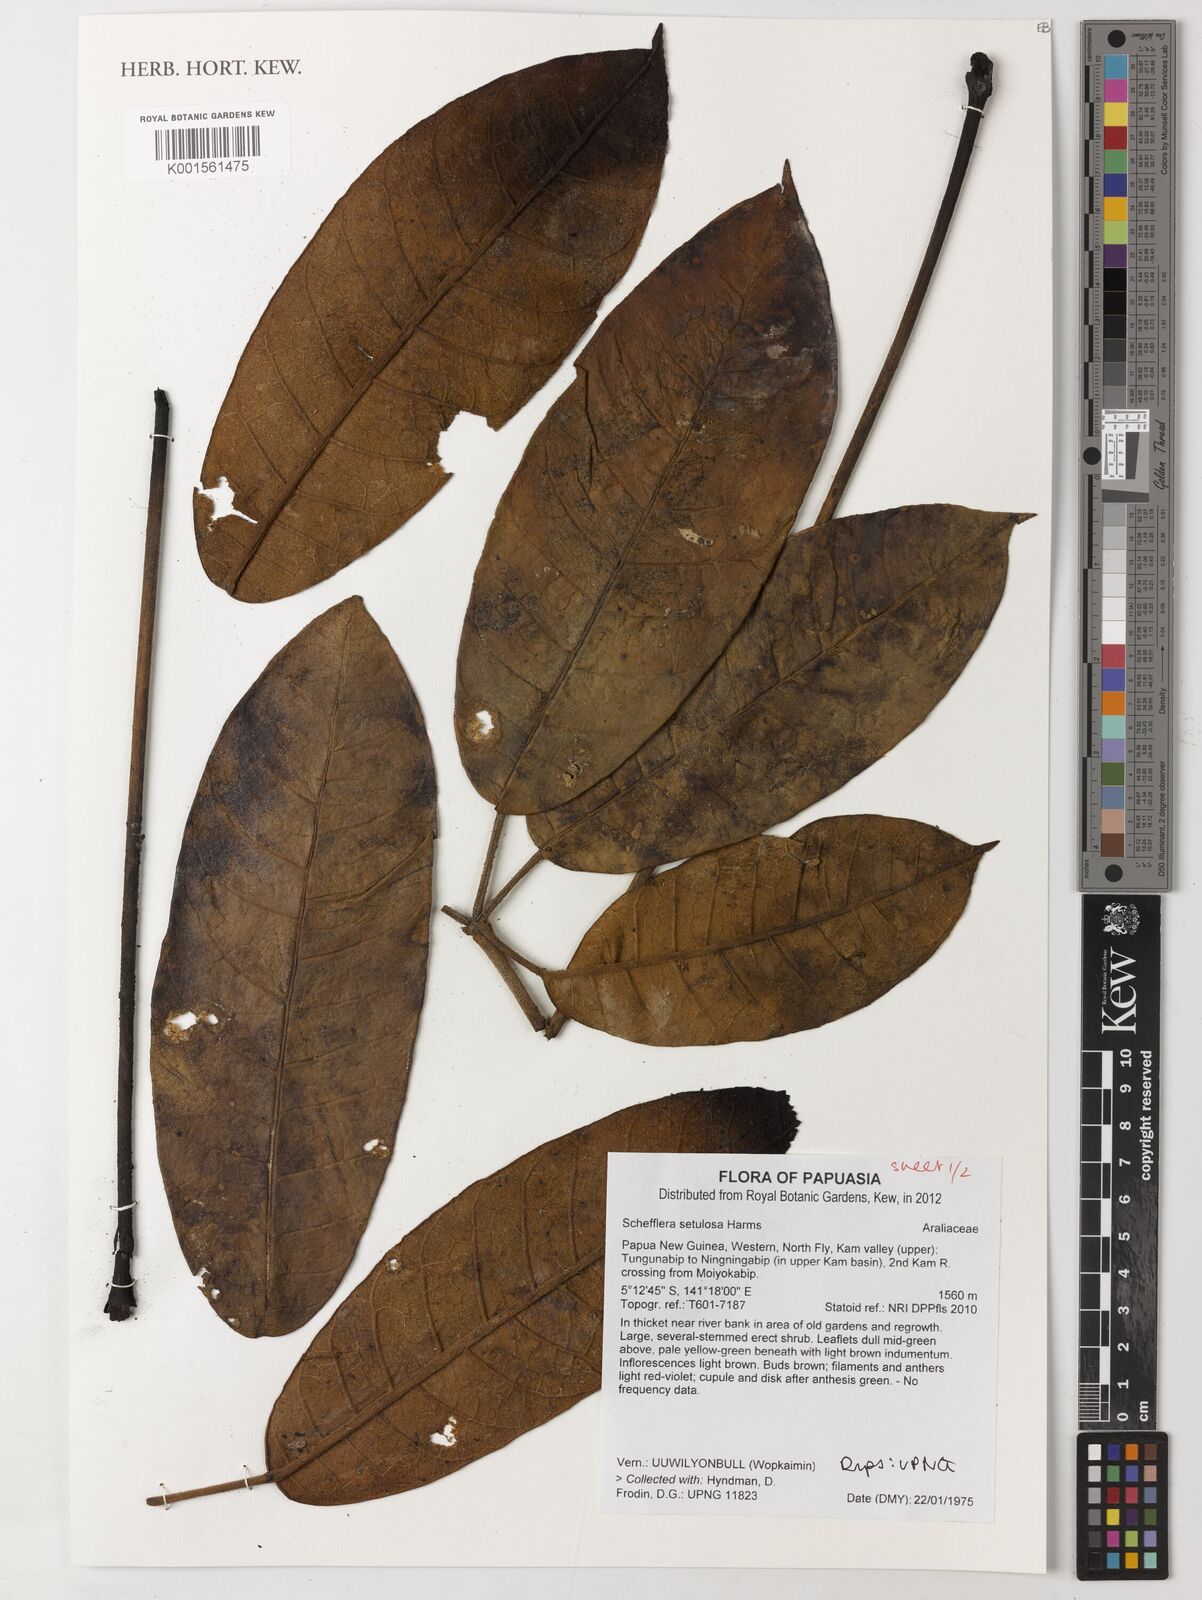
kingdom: Plantae
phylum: Tracheophyta
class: Magnoliopsida
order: Apiales
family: Araliaceae
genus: Heptapleurum
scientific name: Heptapleurum setulosum
